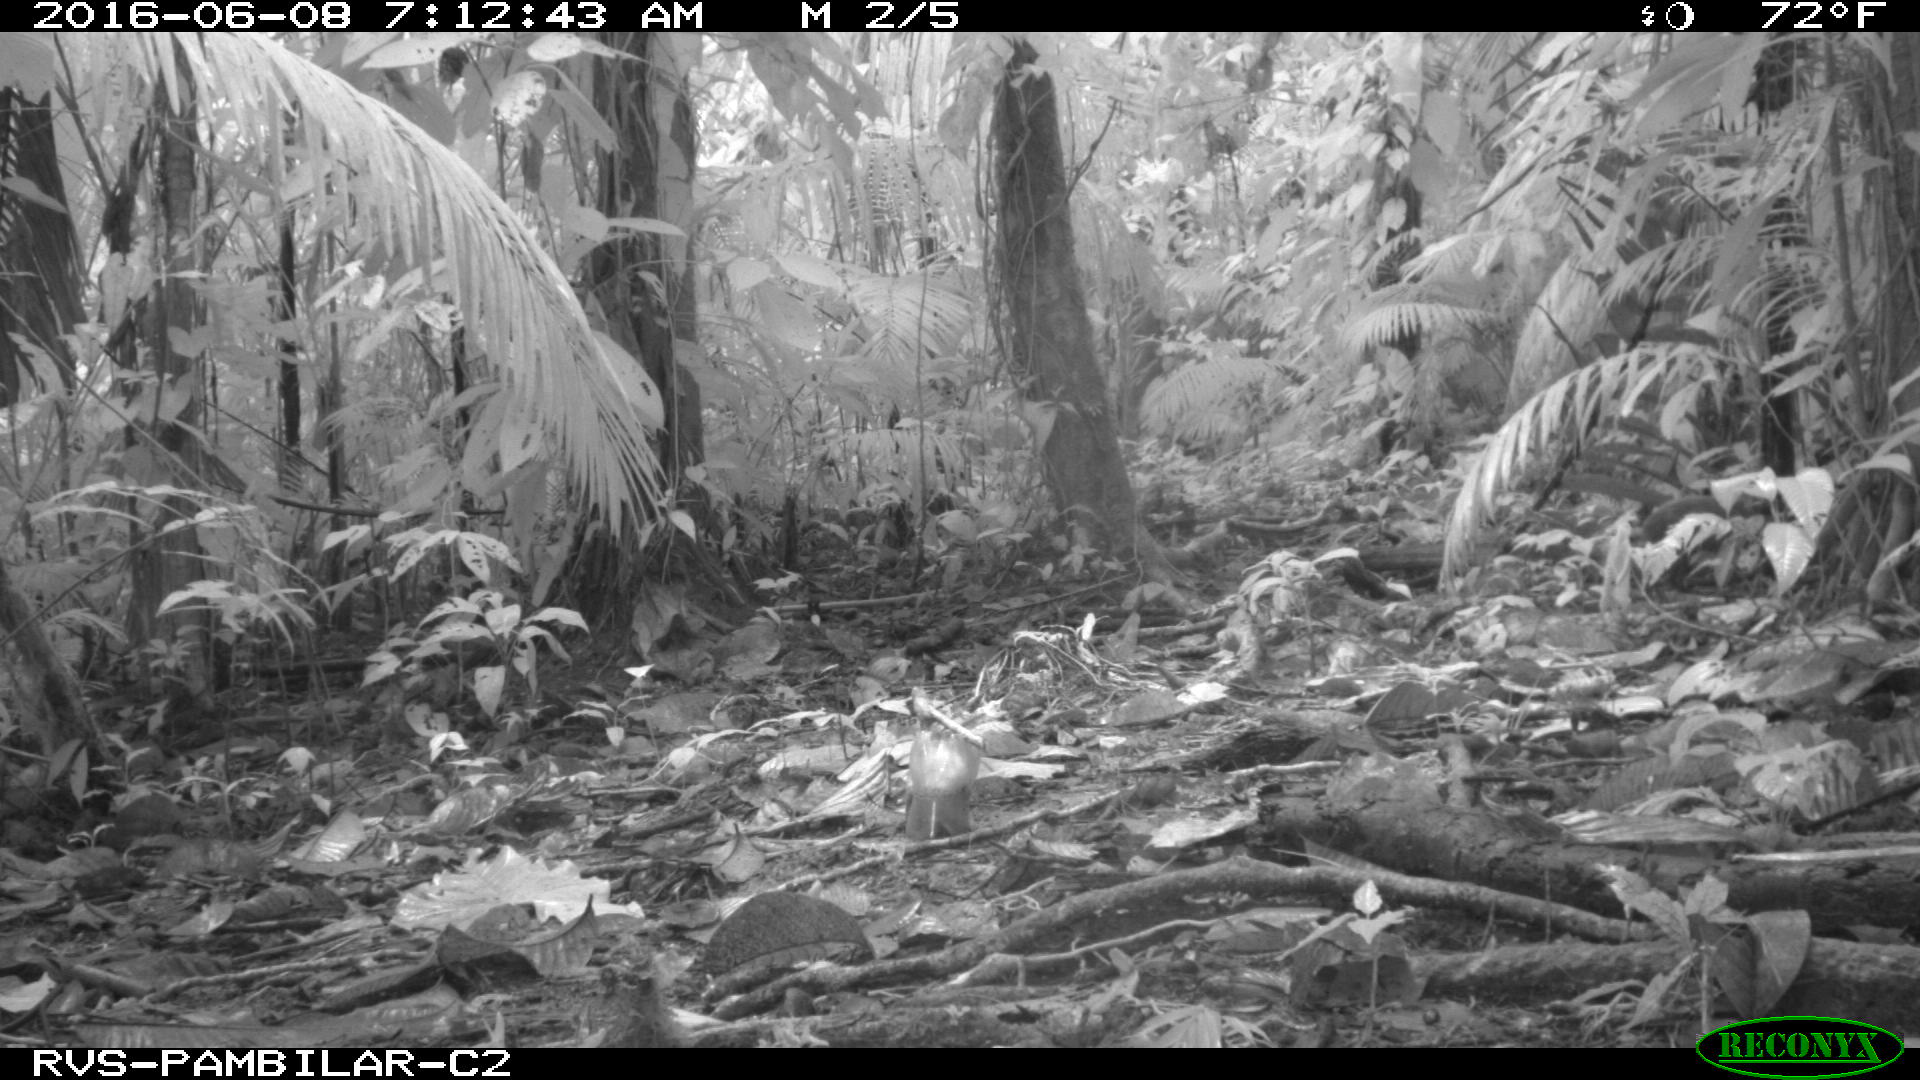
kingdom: Animalia
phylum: Chordata
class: Mammalia
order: Rodentia
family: Dasyproctidae
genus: Dasyprocta
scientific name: Dasyprocta punctata
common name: Central american agouti
